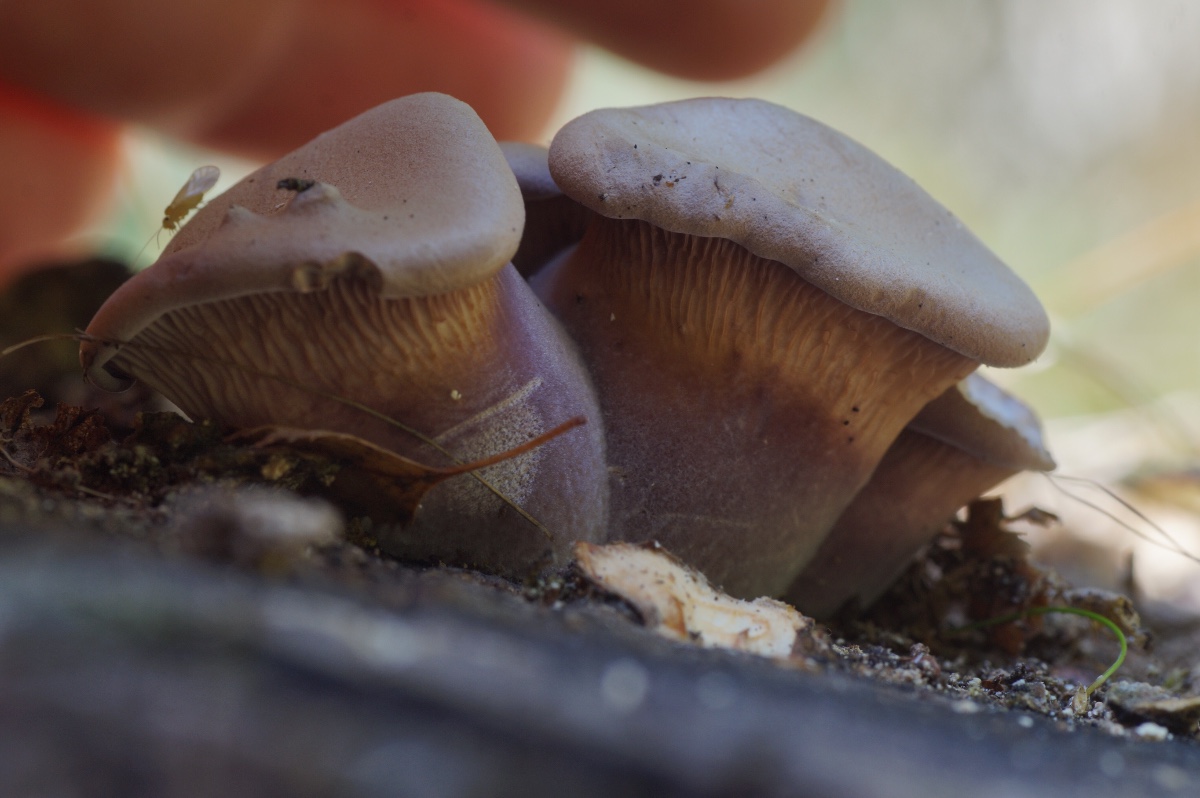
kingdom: Fungi
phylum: Basidiomycota
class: Agaricomycetes
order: Polyporales
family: Panaceae
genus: Panus
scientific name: Panus conchatus
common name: filtstokket læderhat
